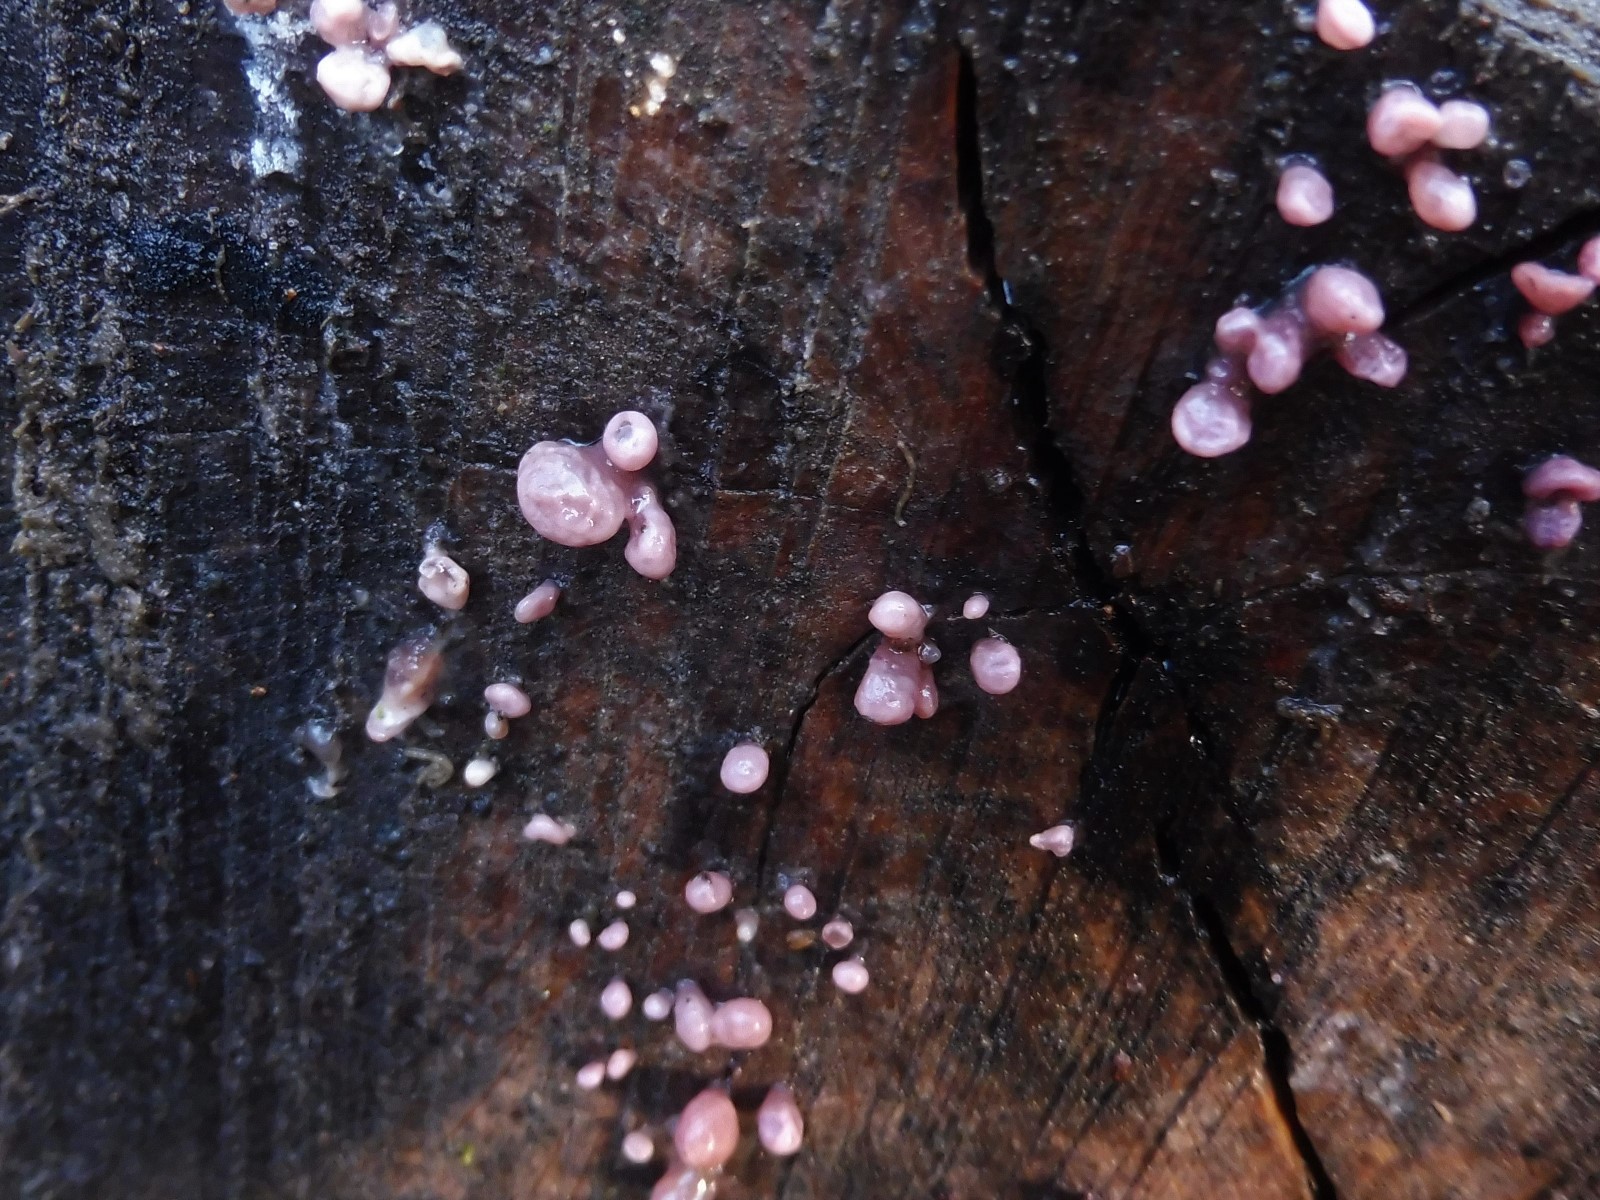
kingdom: Fungi
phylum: Ascomycota
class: Leotiomycetes
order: Helotiales
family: Gelatinodiscaceae
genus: Ascocoryne
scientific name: Ascocoryne sarcoides
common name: rødlilla sejskive
